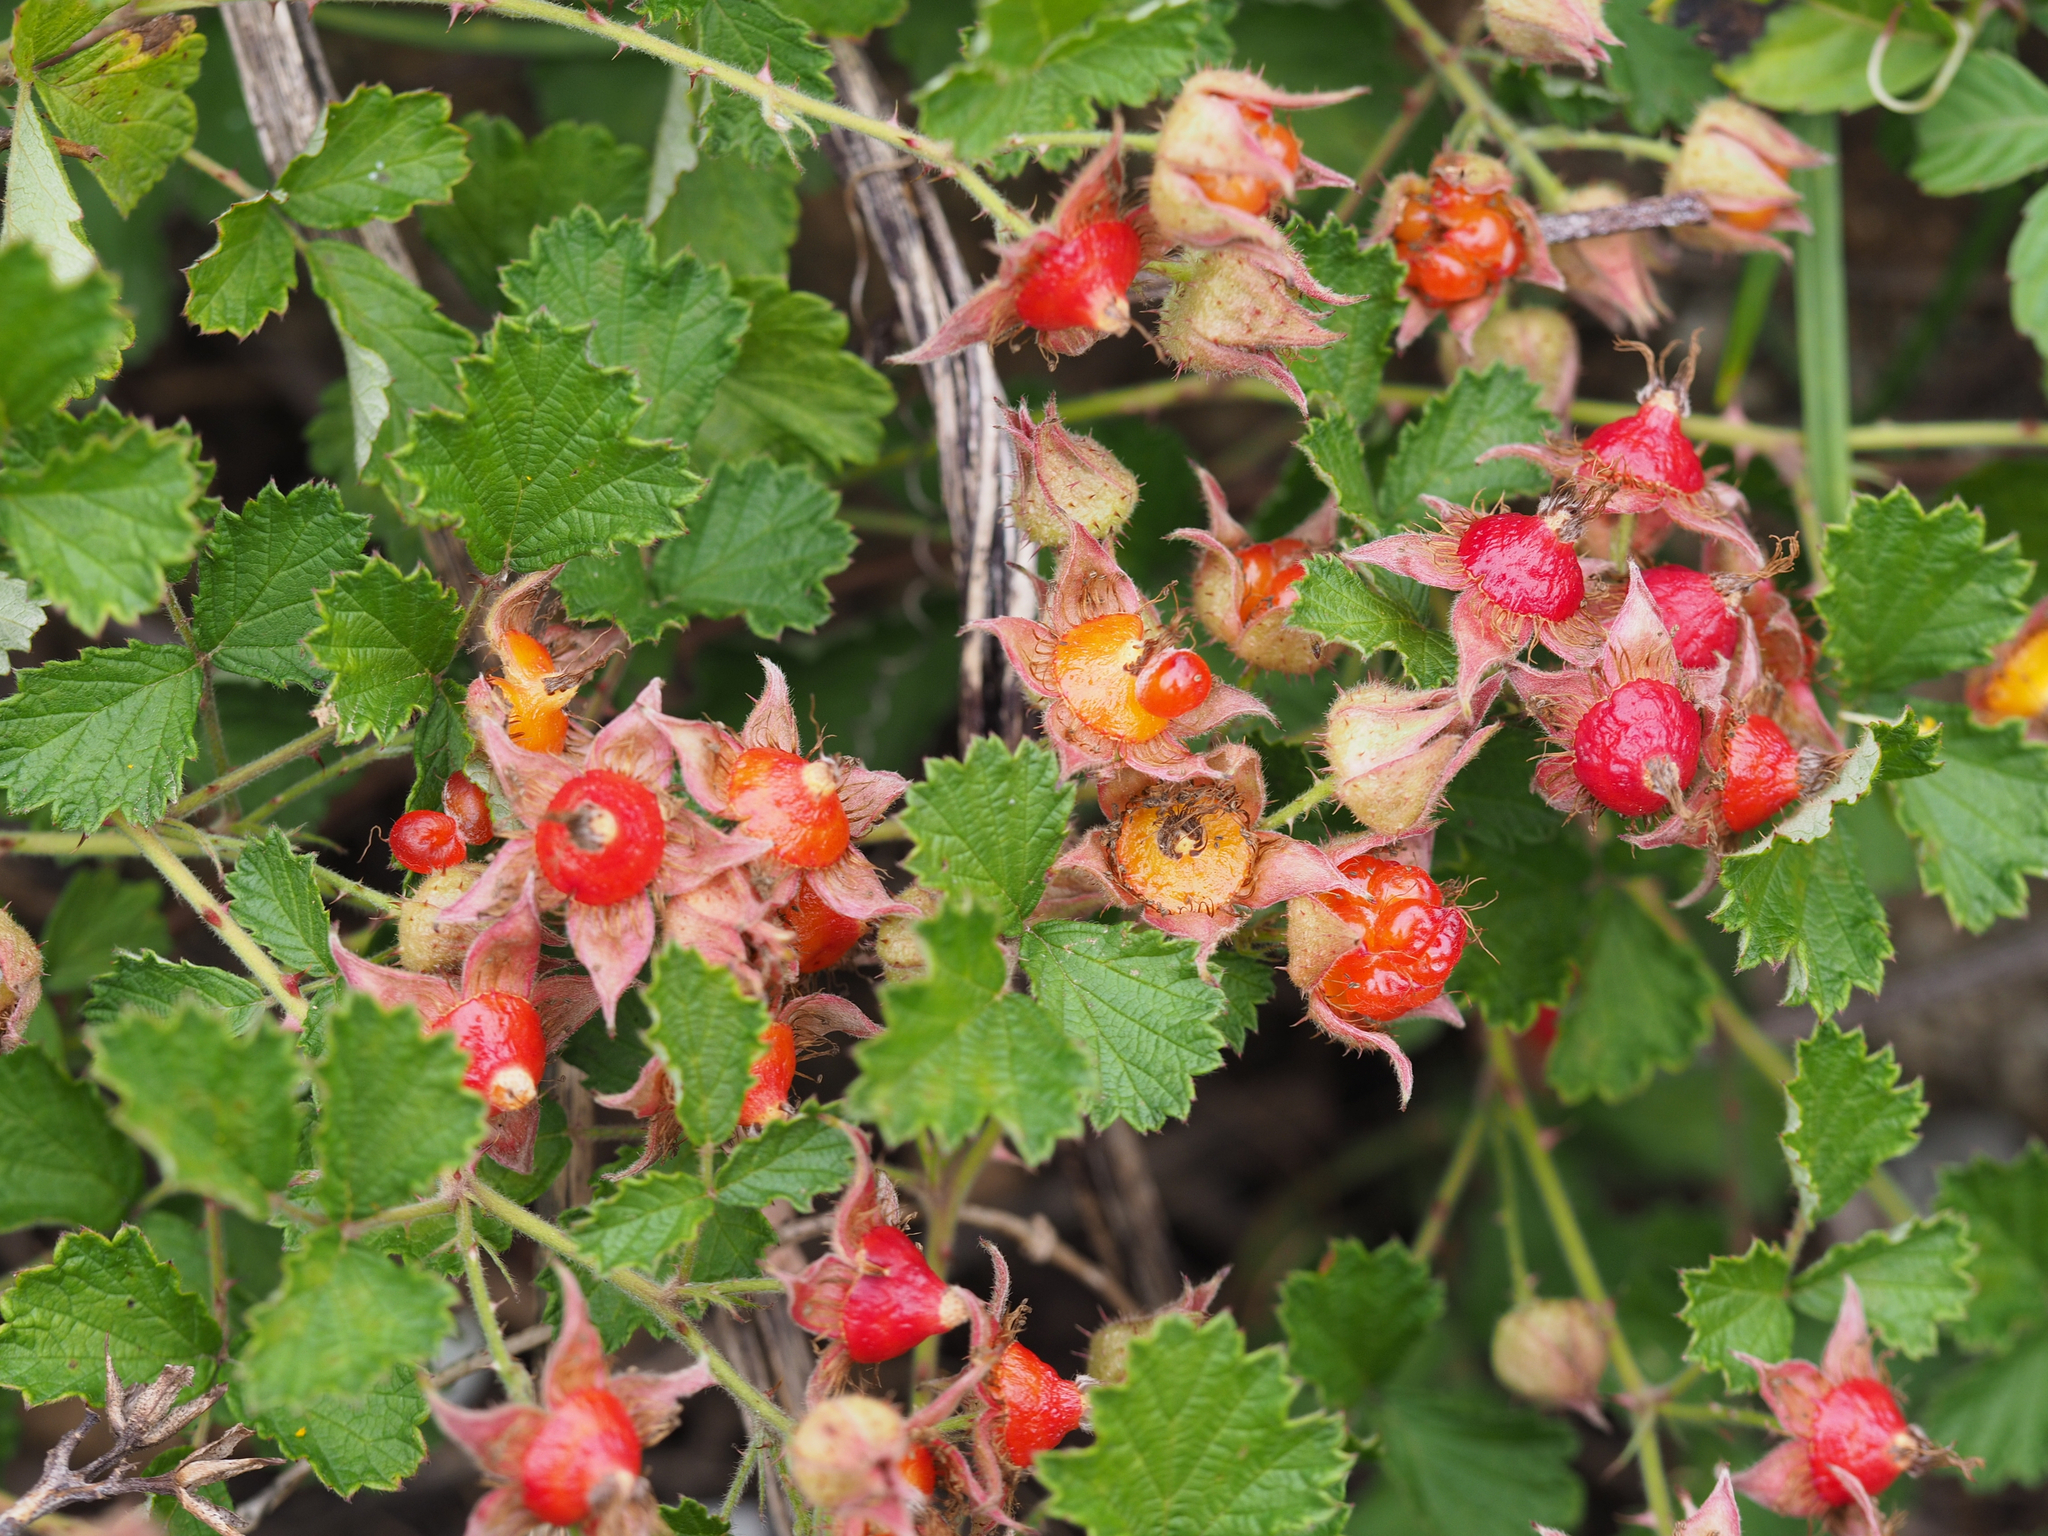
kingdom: Plantae
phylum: Tracheophyta
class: Magnoliopsida
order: Rosales
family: Rosaceae
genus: Rubus
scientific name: Rubus parvifolius
